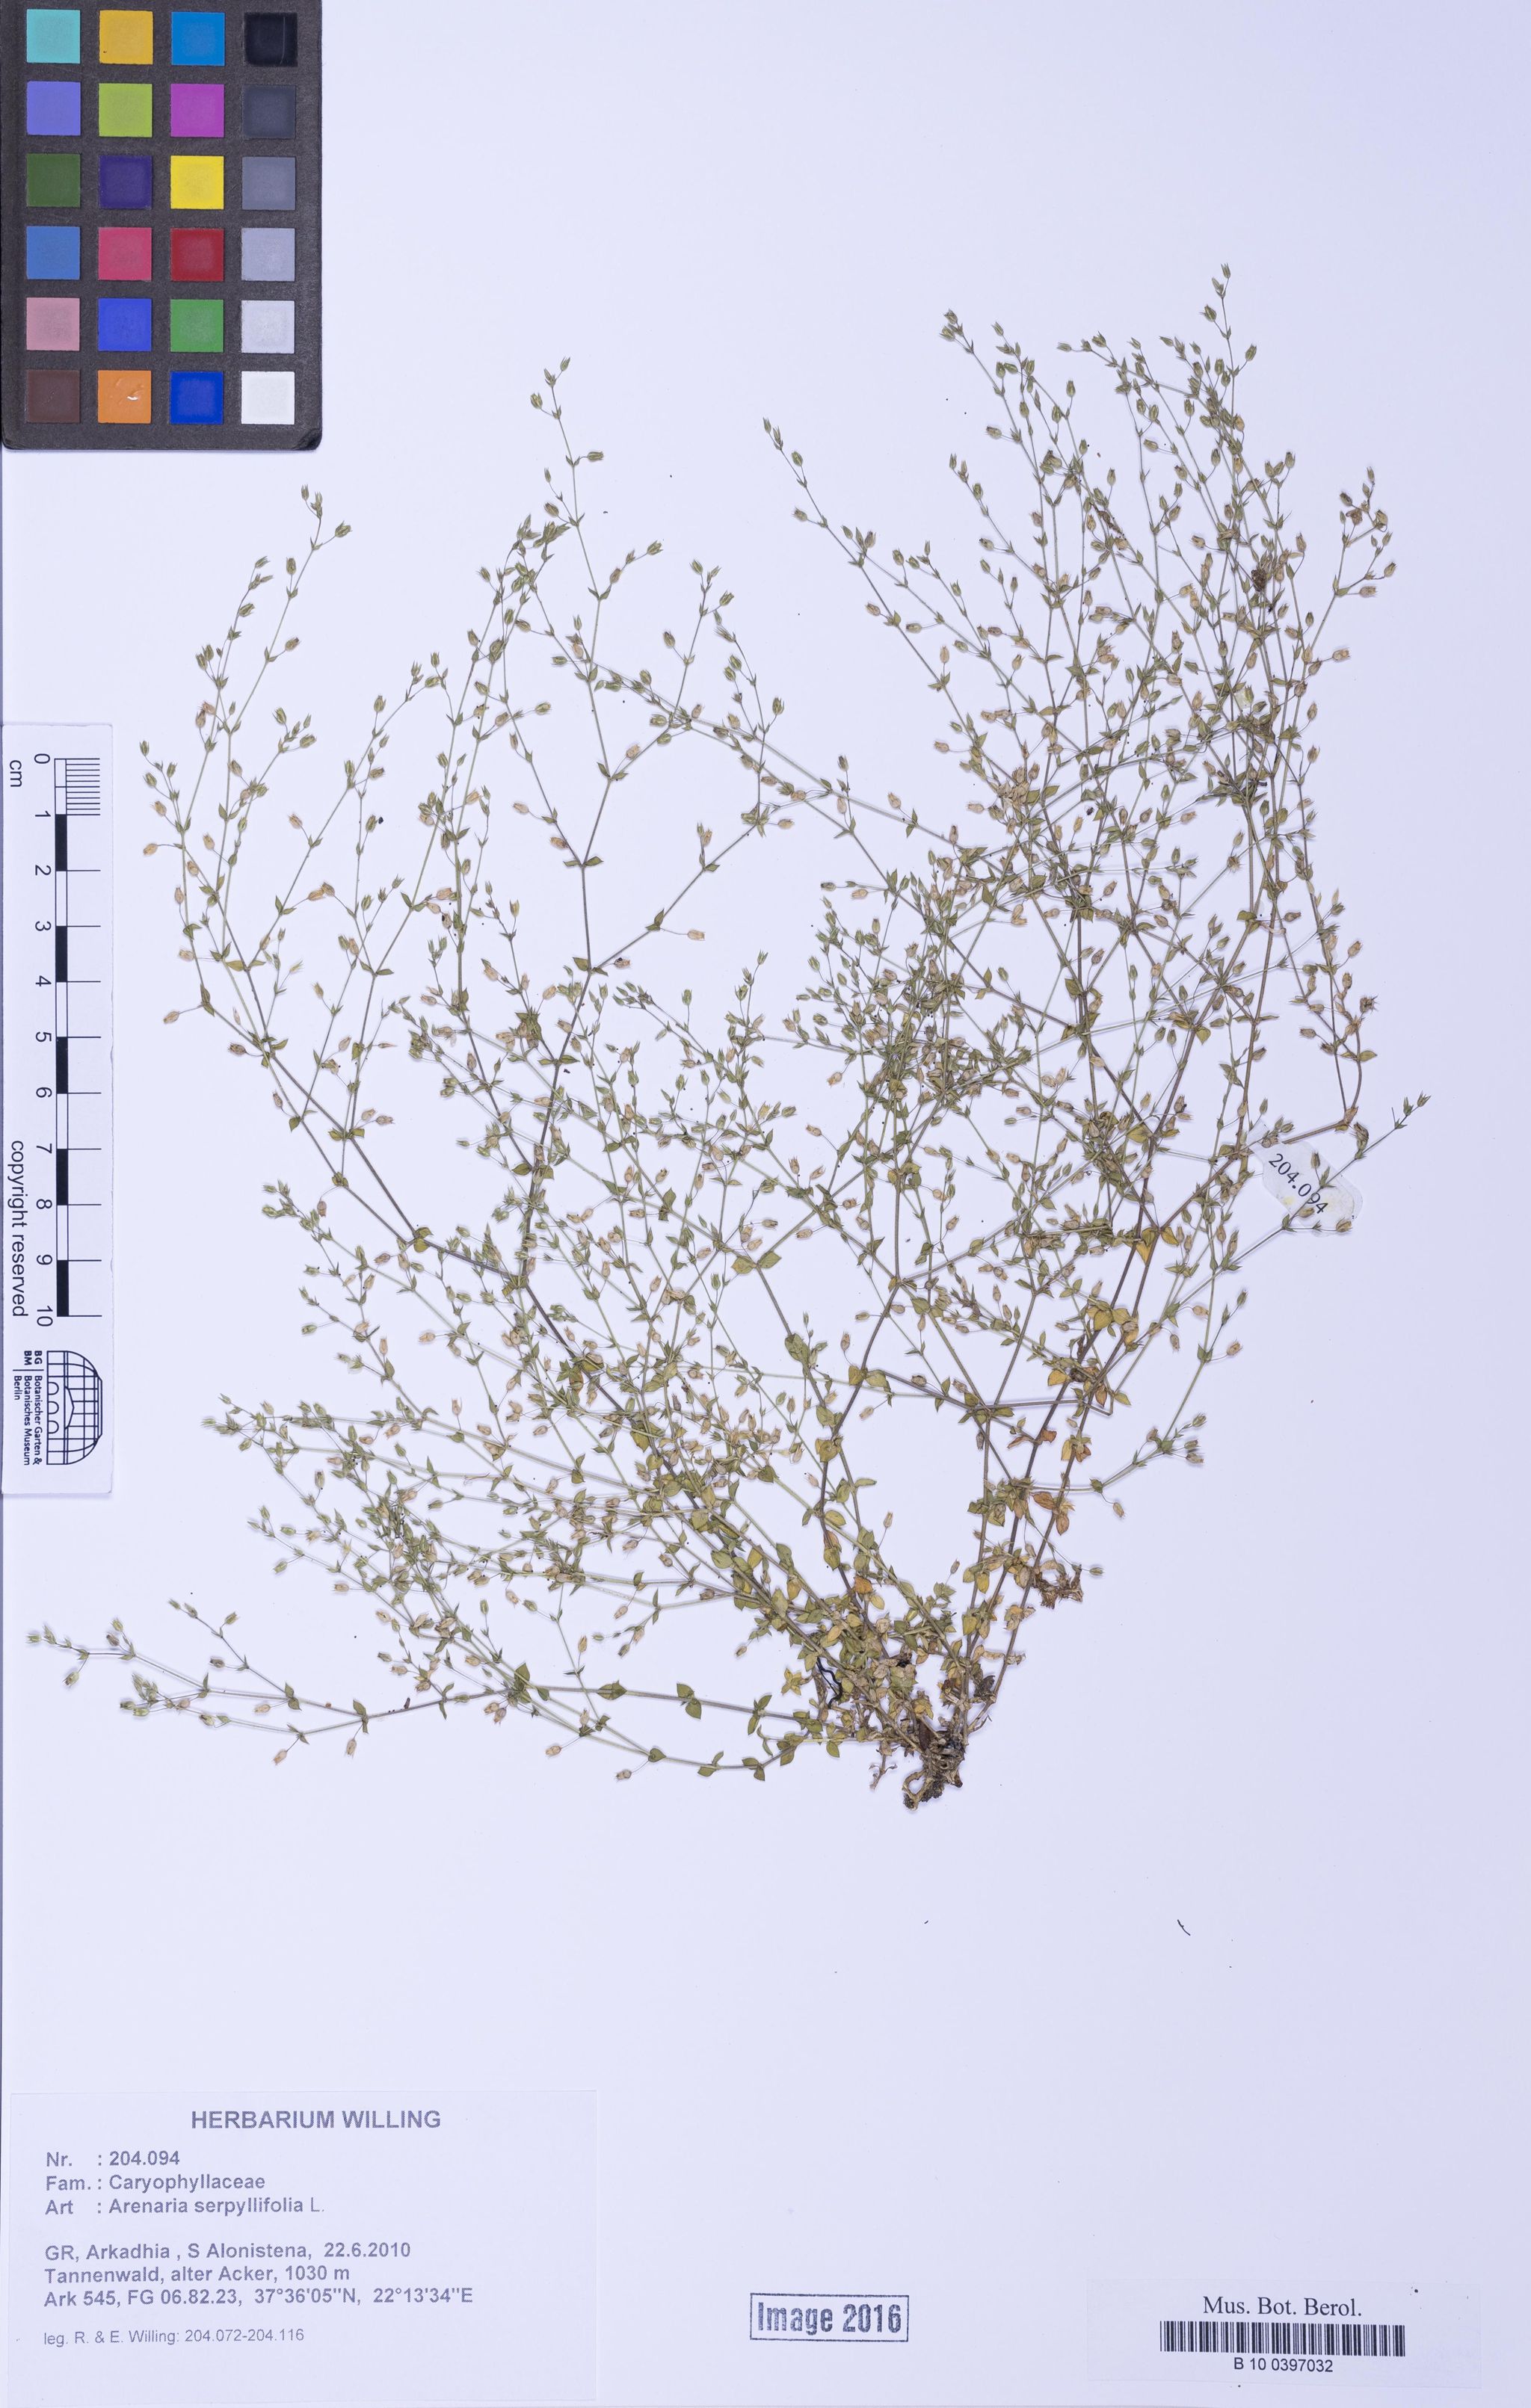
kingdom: Plantae
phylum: Tracheophyta
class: Magnoliopsida
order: Caryophyllales
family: Caryophyllaceae
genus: Arenaria
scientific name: Arenaria serpyllifolia
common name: Thyme-leaved sandwort
